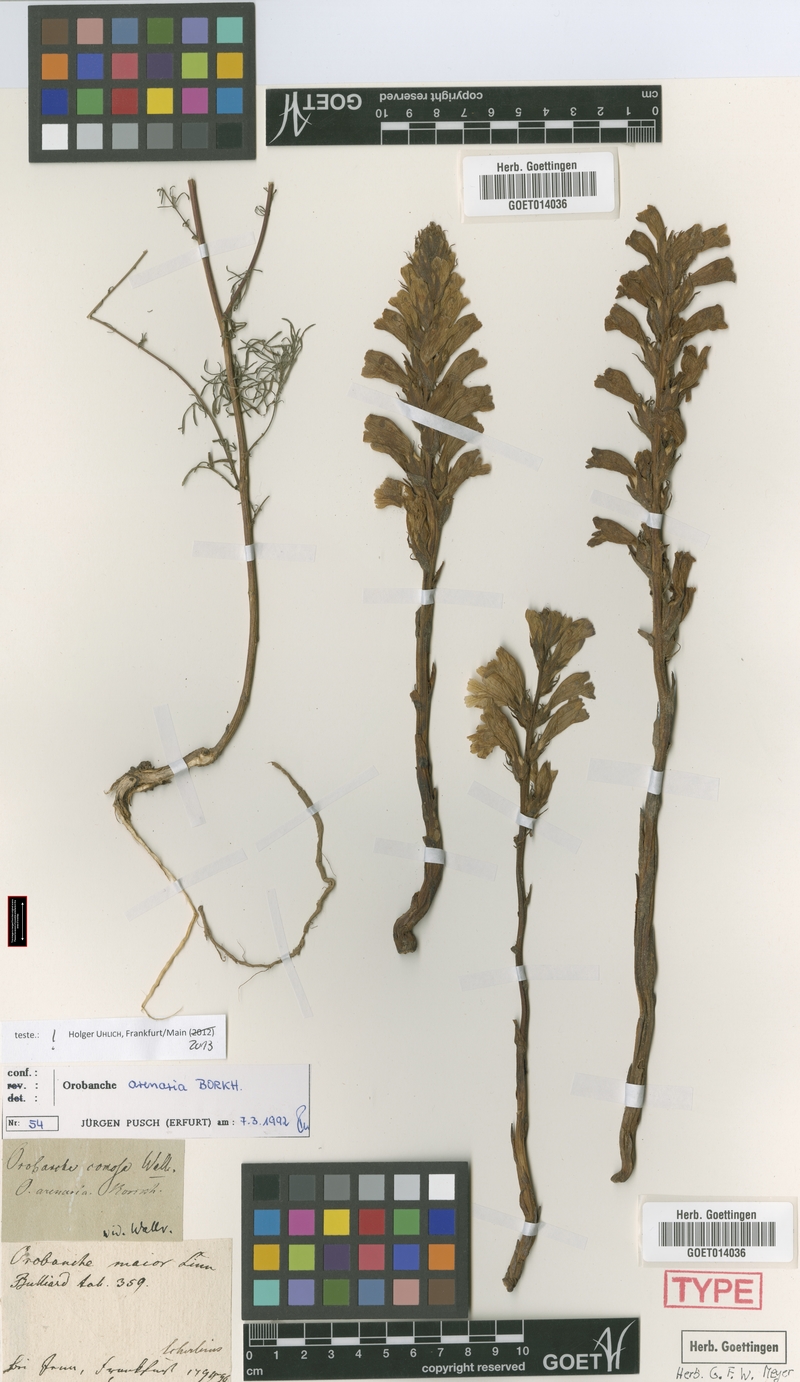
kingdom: Plantae
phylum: Tracheophyta
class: Magnoliopsida
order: Lamiales
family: Orobanchaceae
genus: Phelipanche
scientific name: Phelipanche arenaria
